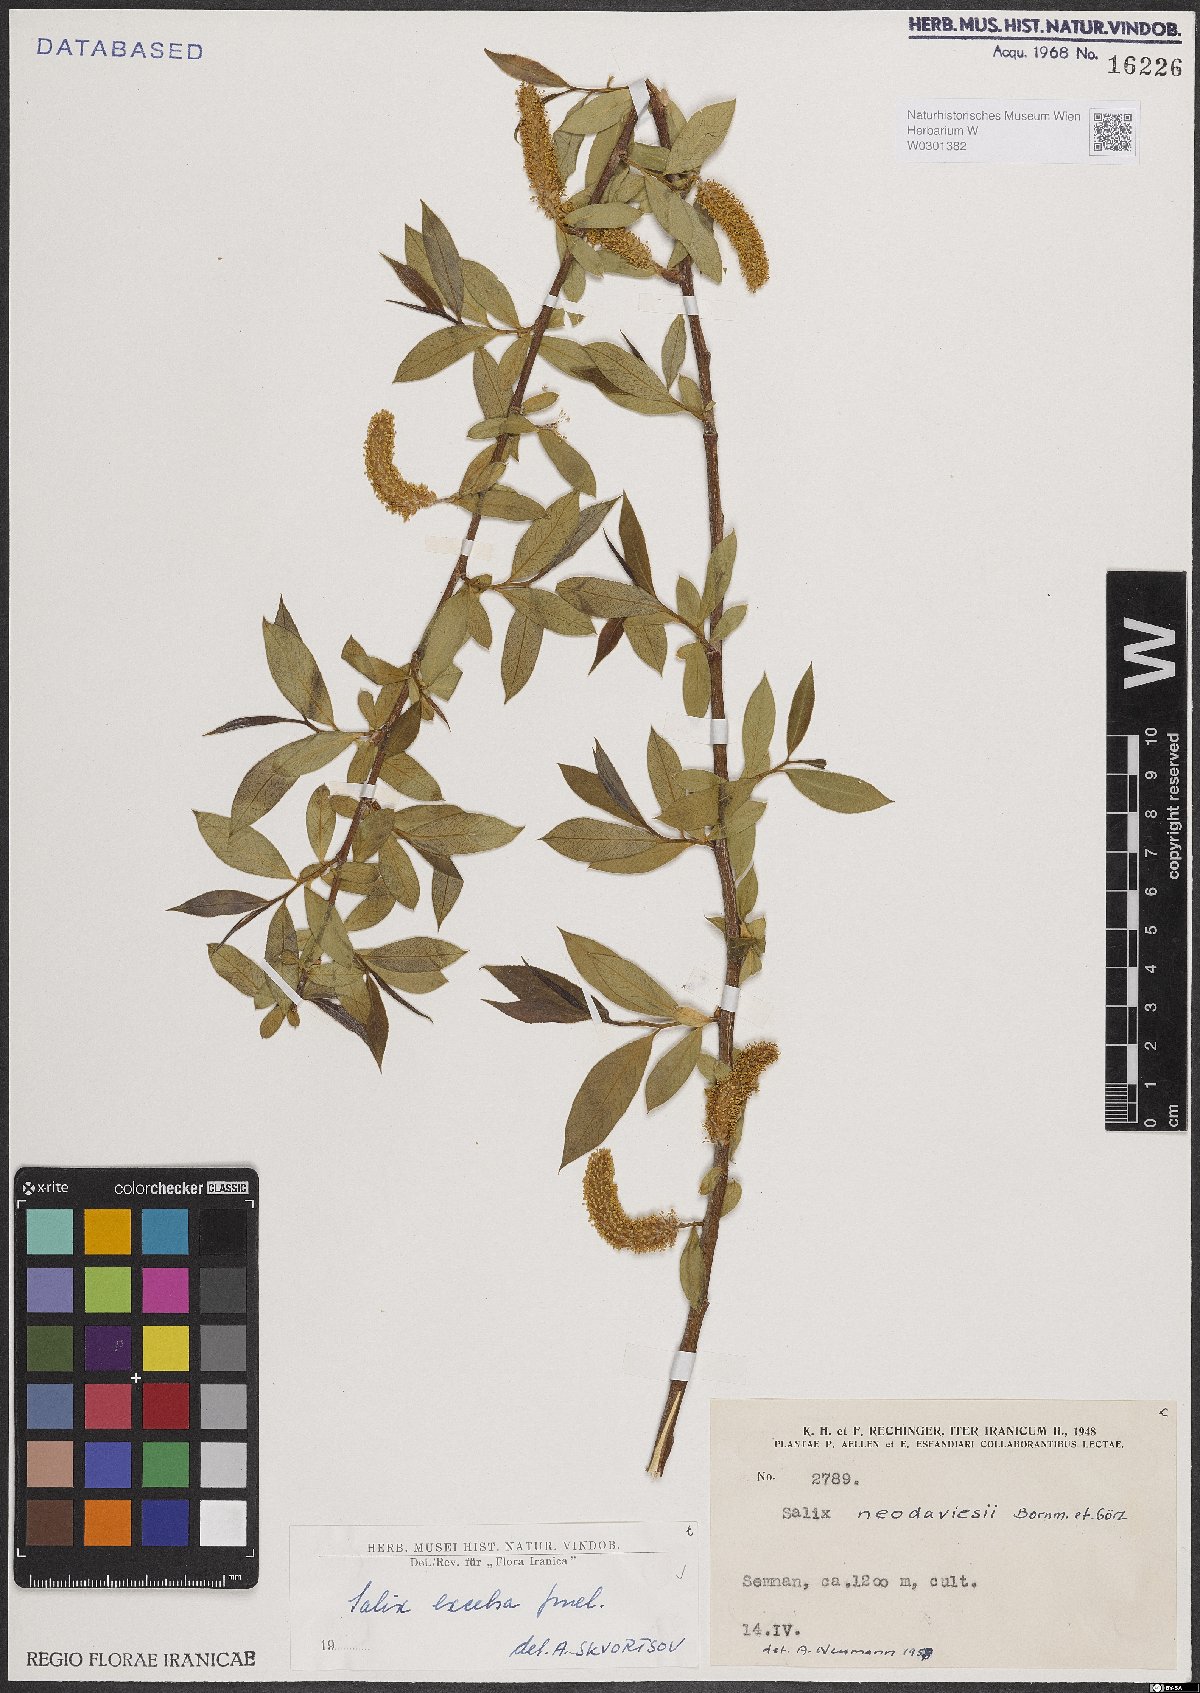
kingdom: Plantae
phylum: Tracheophyta
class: Magnoliopsida
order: Malpighiales
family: Salicaceae
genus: Salix
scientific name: Salix excelsa
